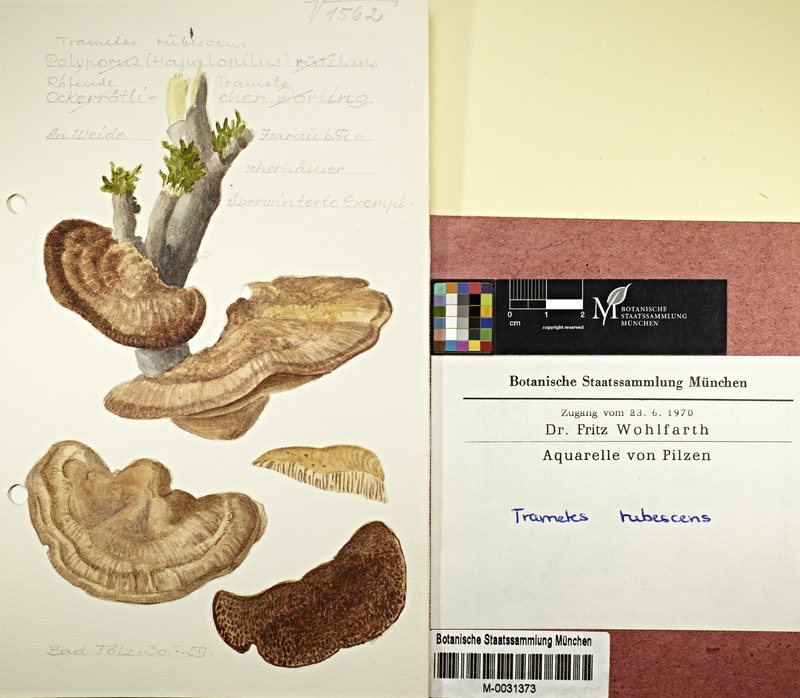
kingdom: Fungi
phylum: Basidiomycota
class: Agaricomycetes
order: Polyporales
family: Polyporaceae
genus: Daedaleopsis
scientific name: Daedaleopsis confragosa
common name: Blushing bracket
